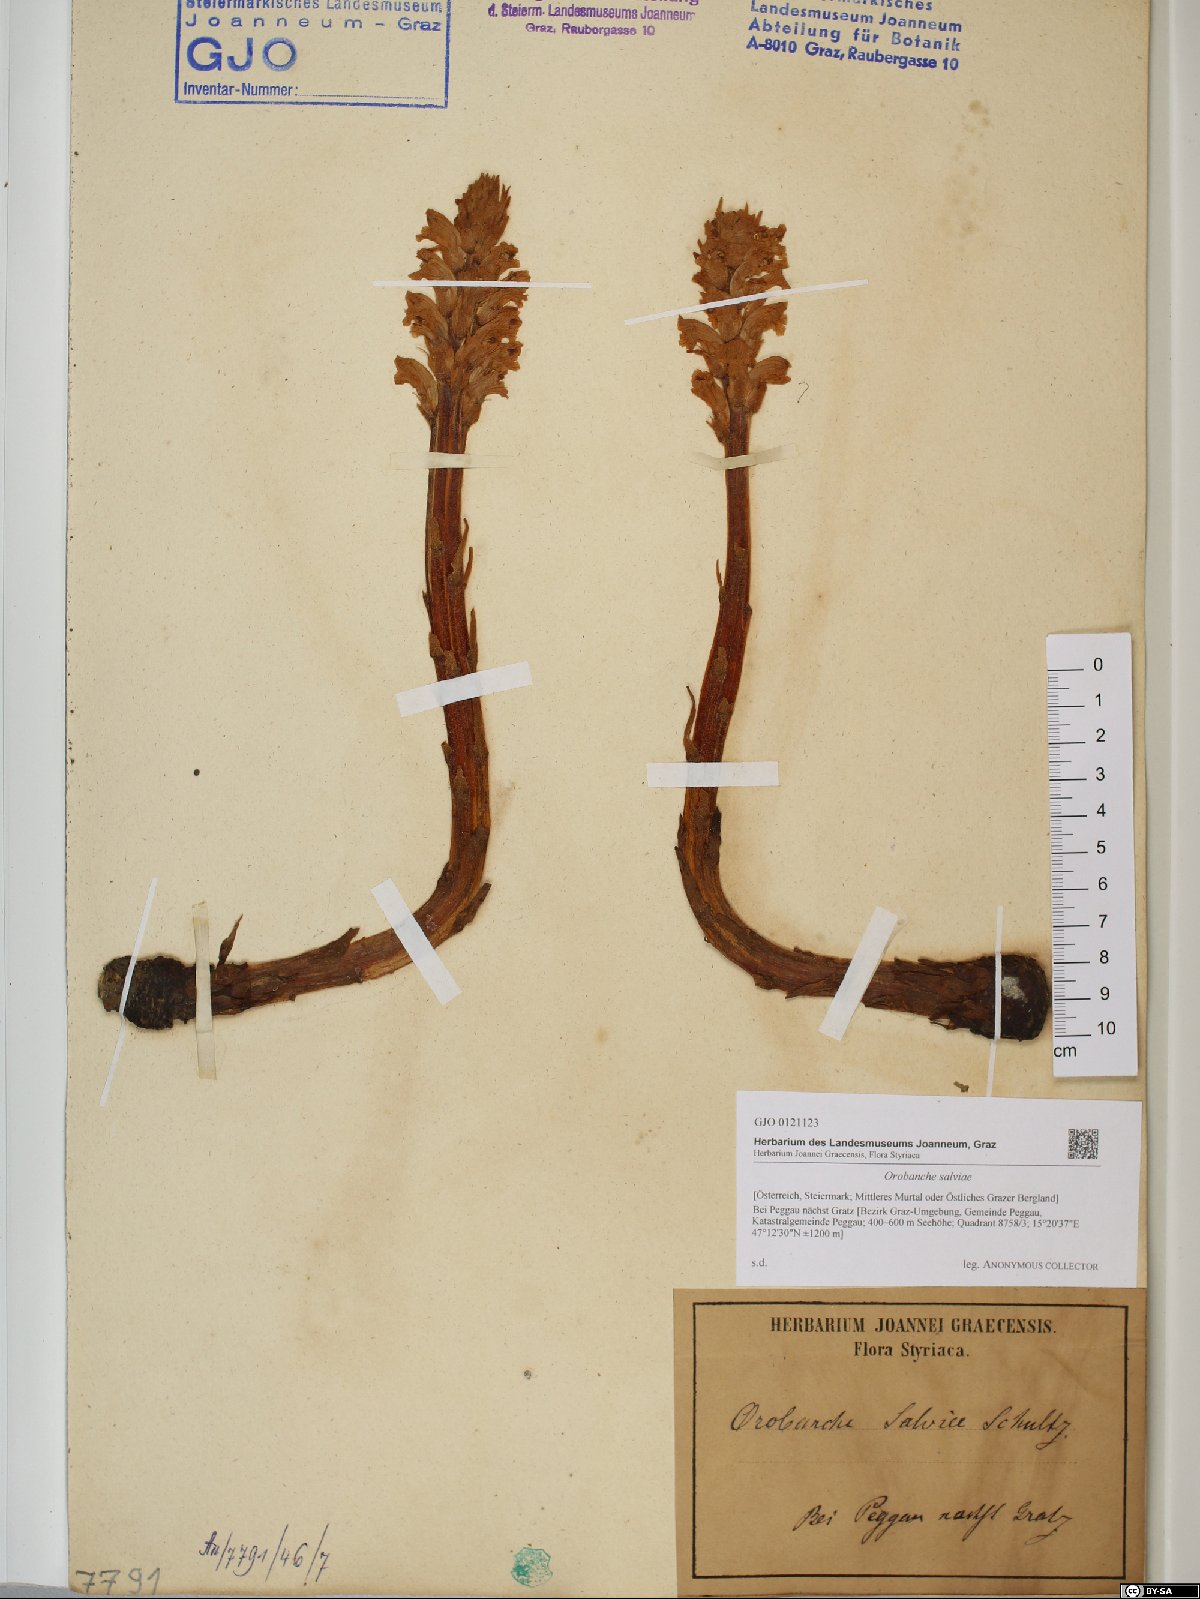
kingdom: Plantae
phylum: Tracheophyta
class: Magnoliopsida
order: Lamiales
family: Orobanchaceae
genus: Orobanche
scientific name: Orobanche salviae
